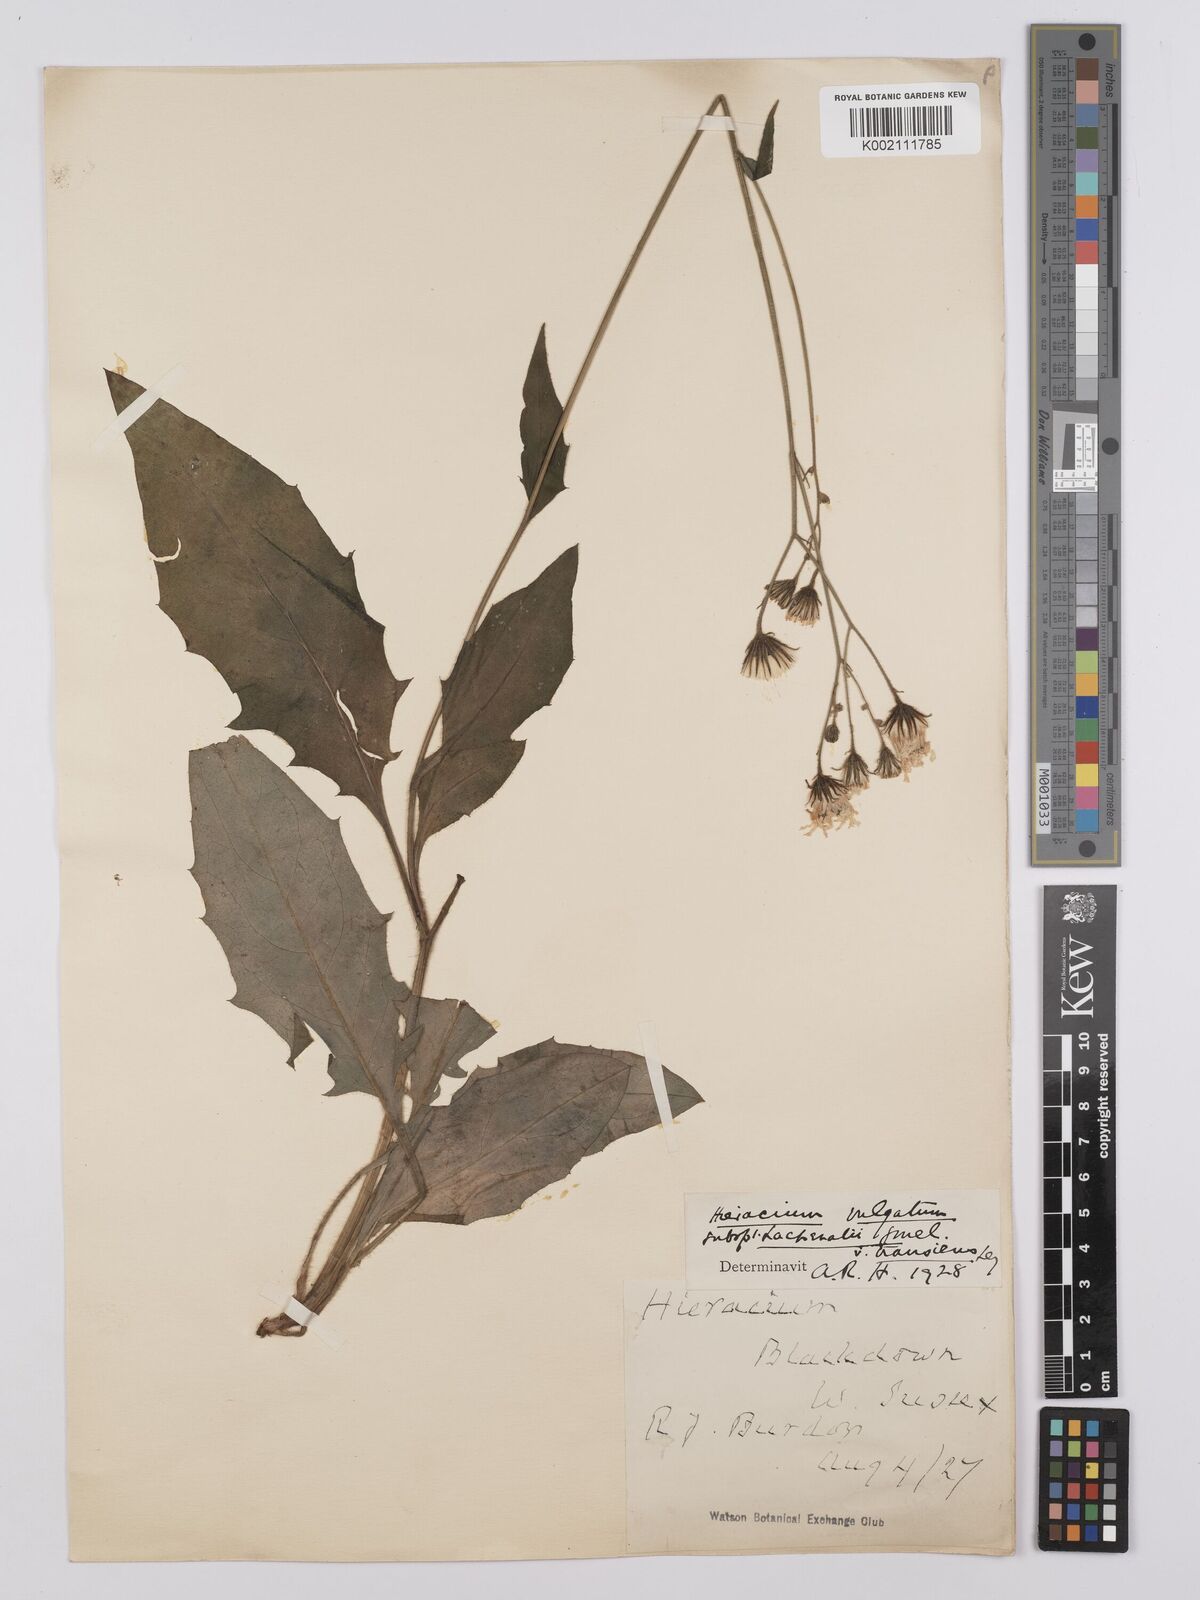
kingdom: Plantae
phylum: Tracheophyta
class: Magnoliopsida
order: Asterales
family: Asteraceae
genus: Hieracium
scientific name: Hieracium lachenalii
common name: Common hawkweed
